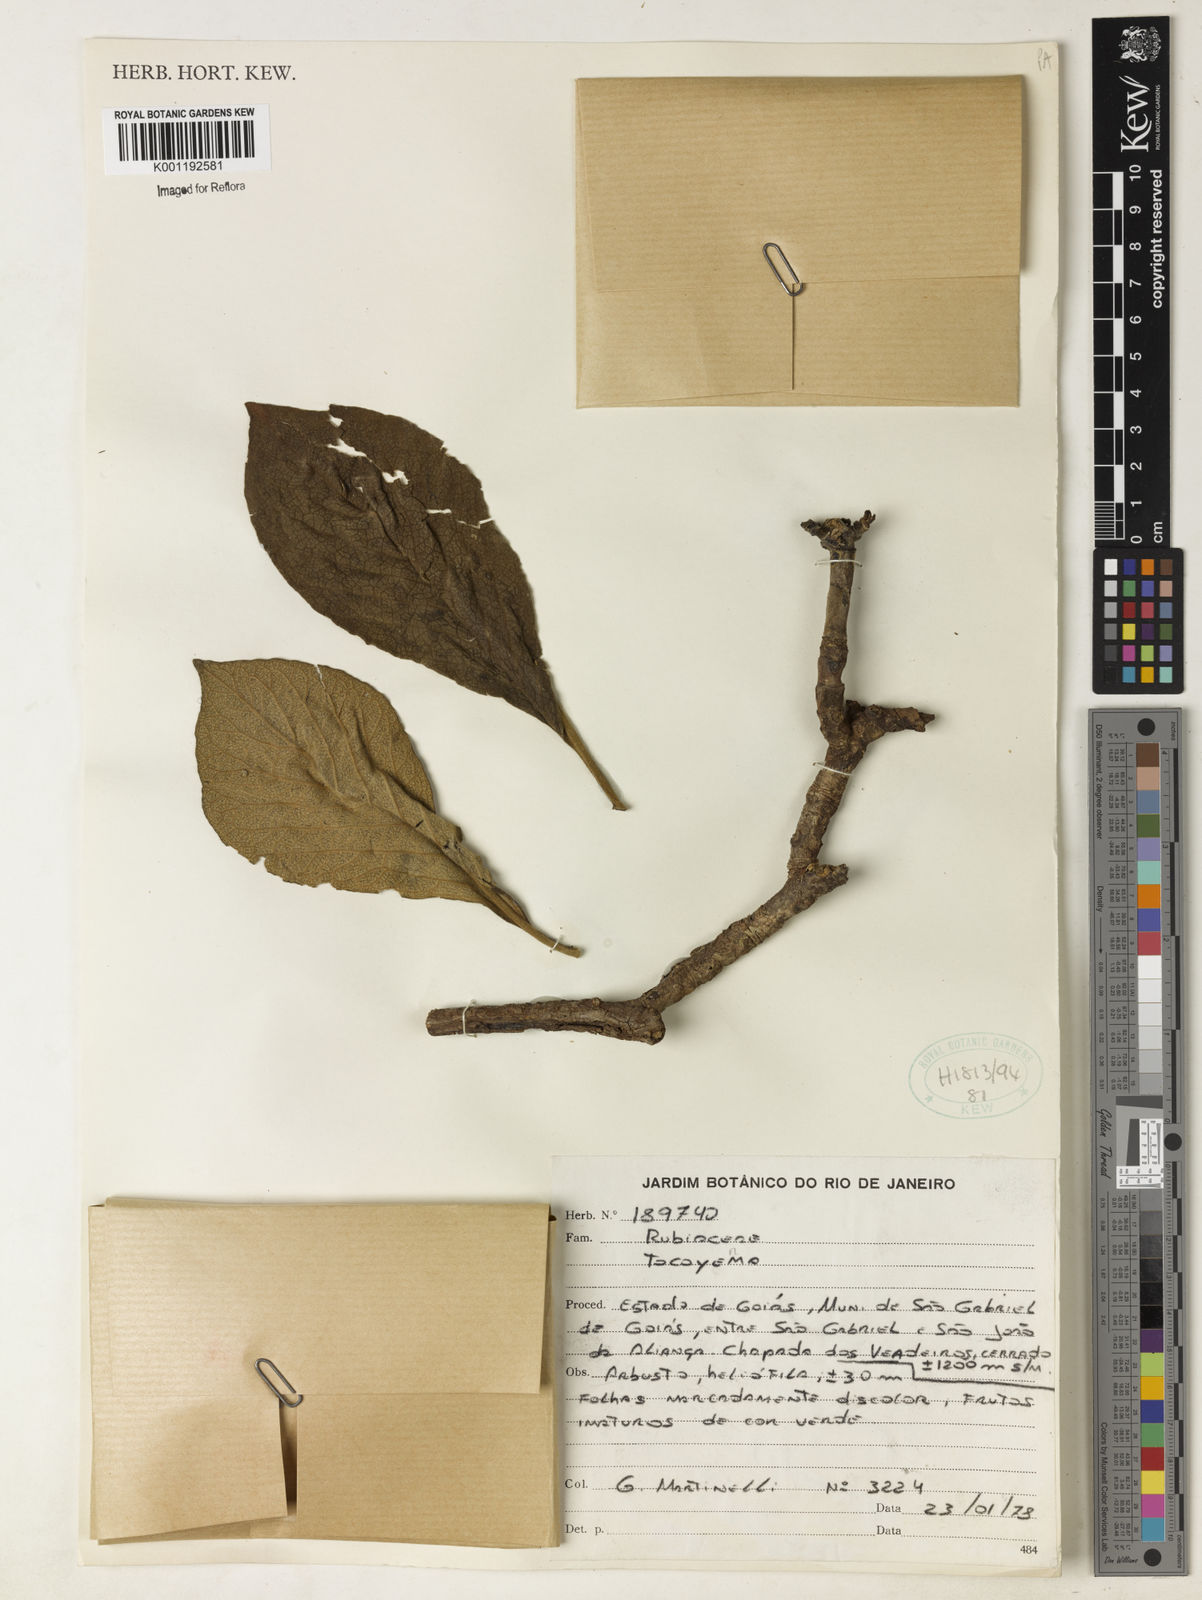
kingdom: Plantae
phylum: Tracheophyta
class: Magnoliopsida
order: Gentianales
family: Rubiaceae
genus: Tocoyena
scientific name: Tocoyena
